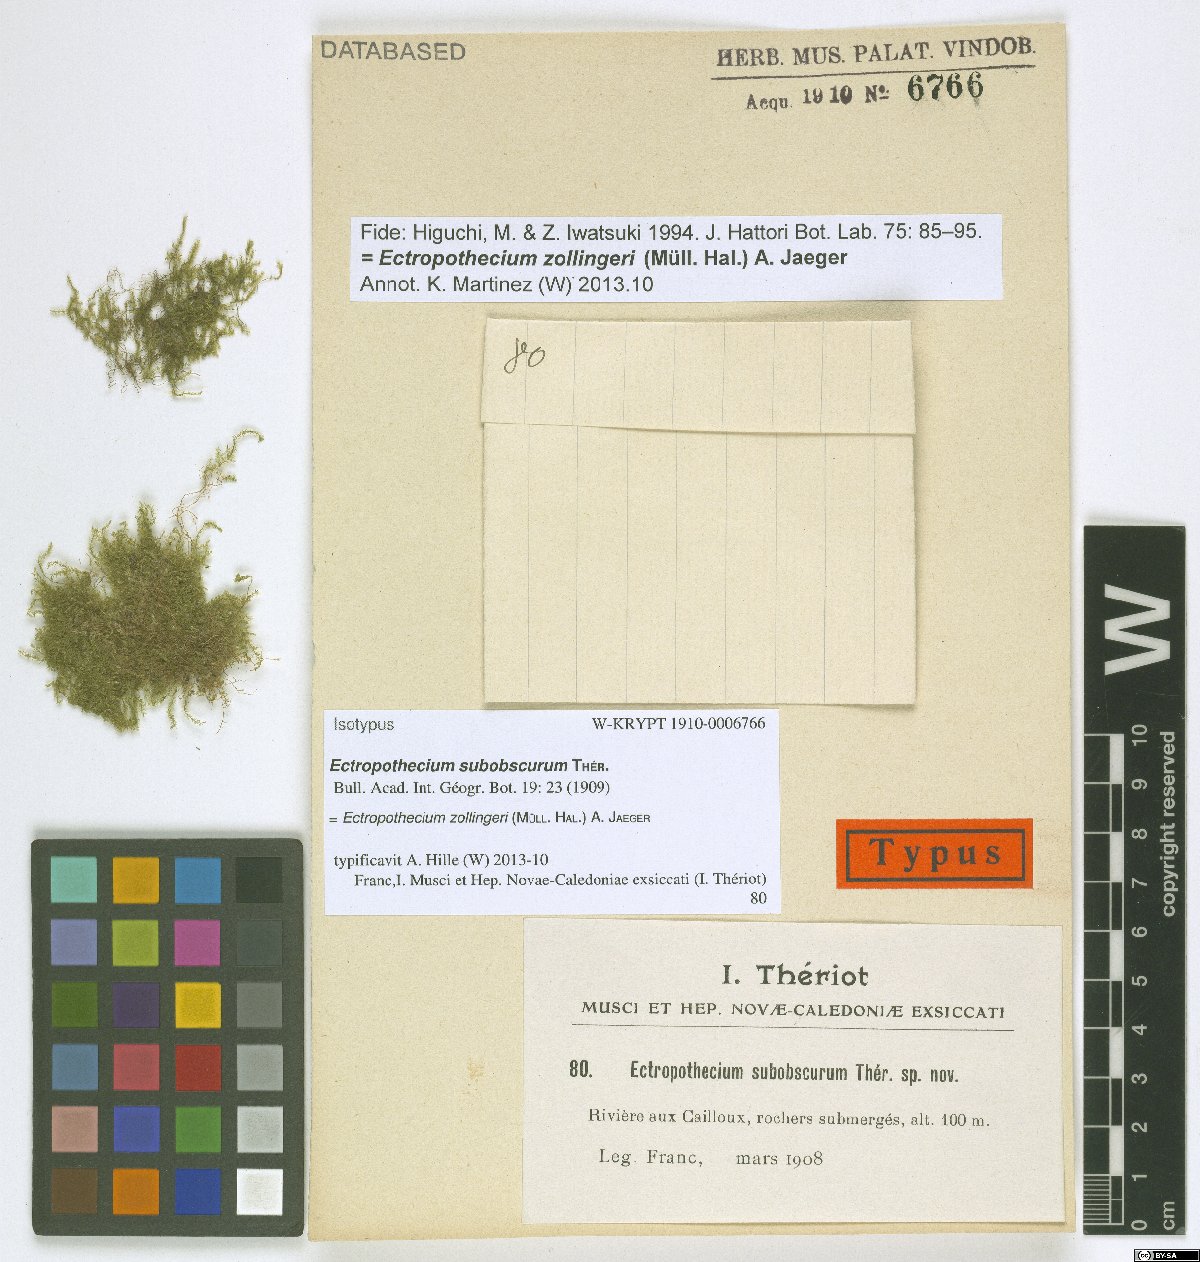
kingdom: Plantae
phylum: Bryophyta
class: Bryopsida
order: Hypnales
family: Hypnaceae
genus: Ectropothecium
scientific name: Ectropothecium zollingeri
